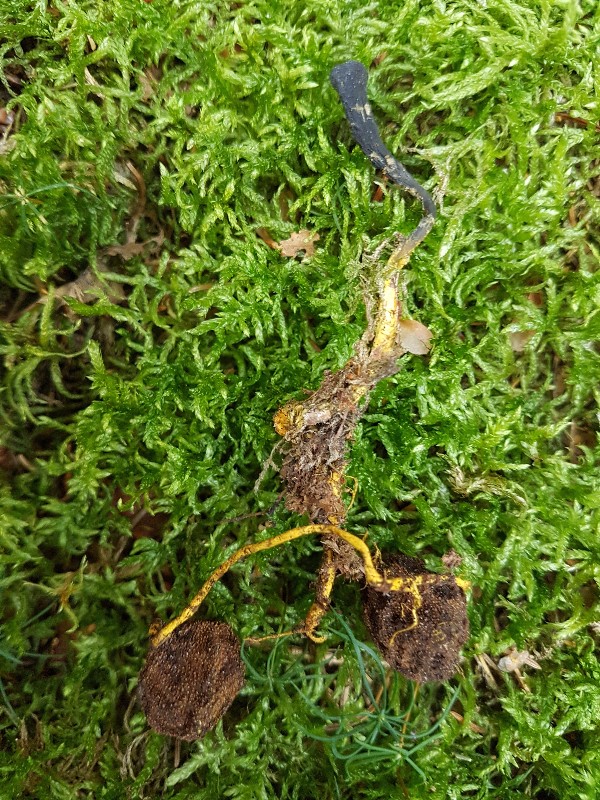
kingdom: Fungi
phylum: Ascomycota
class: Sordariomycetes
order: Hypocreales
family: Ophiocordycipitaceae
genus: Tolypocladium
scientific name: Tolypocladium ophioglossoides
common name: slank snyltekølle
